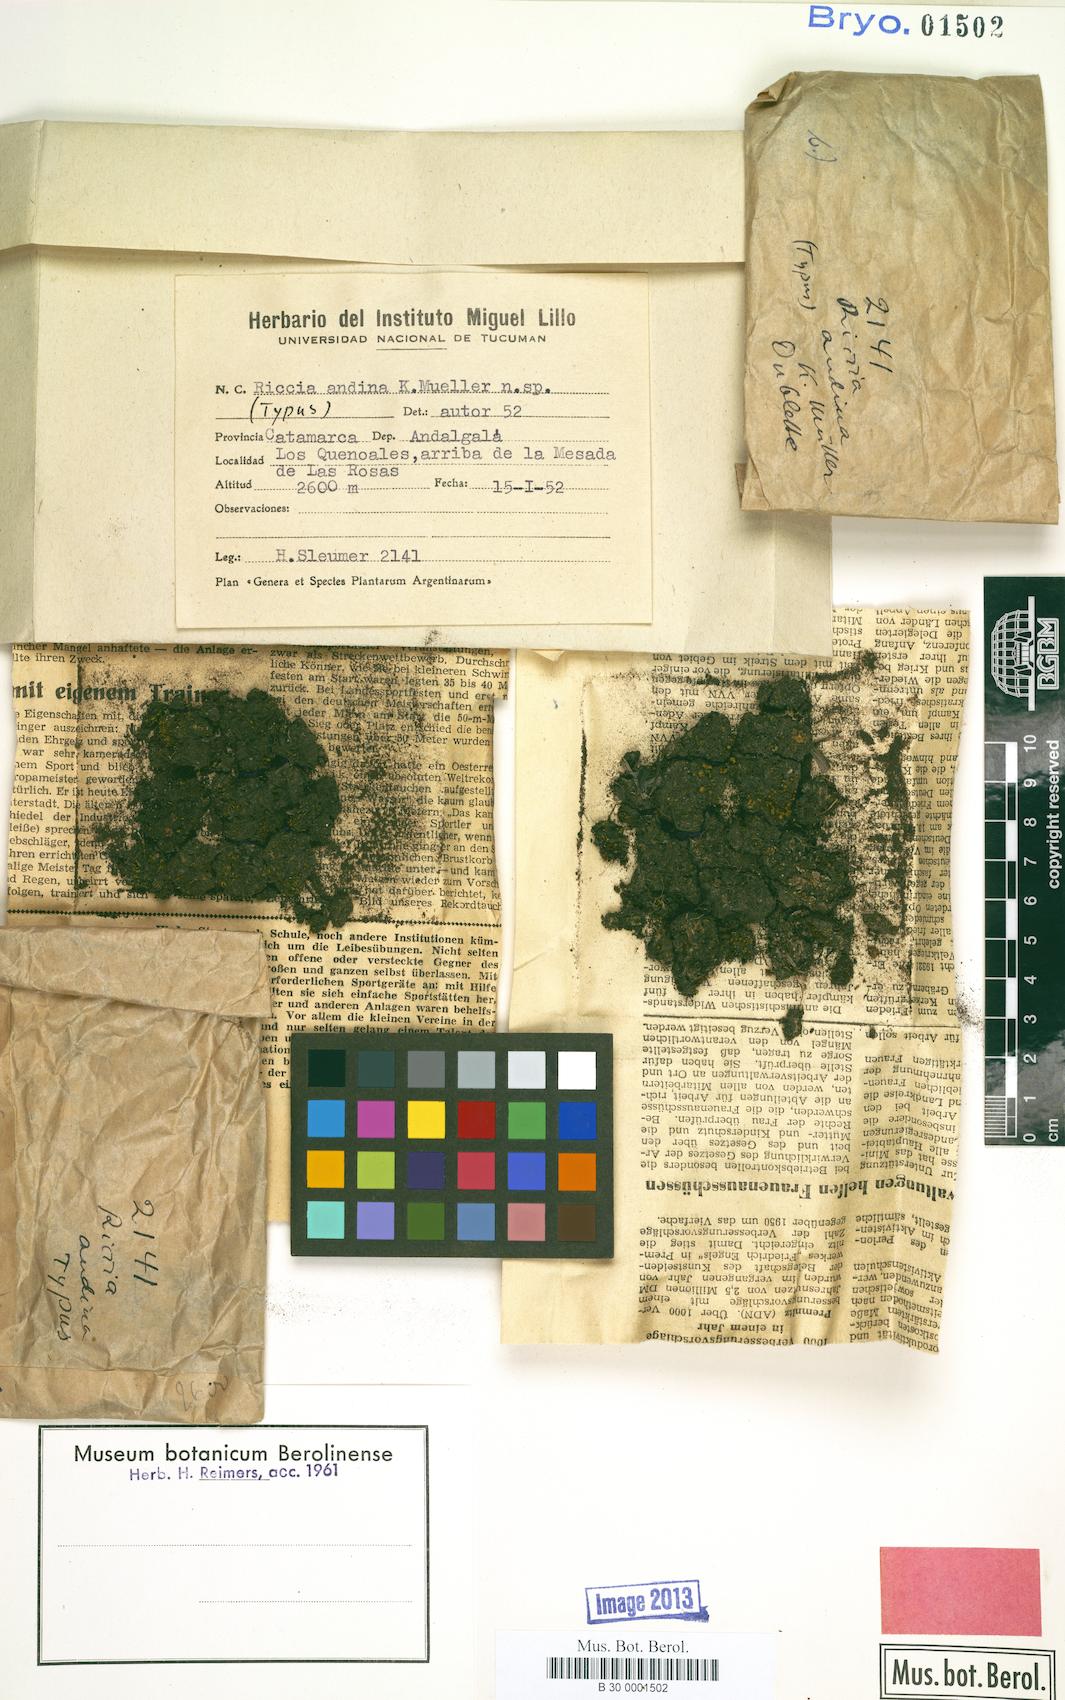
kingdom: Plantae
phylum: Marchantiophyta
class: Marchantiopsida
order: Marchantiales
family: Ricciaceae
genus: Riccia
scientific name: Riccia andina
